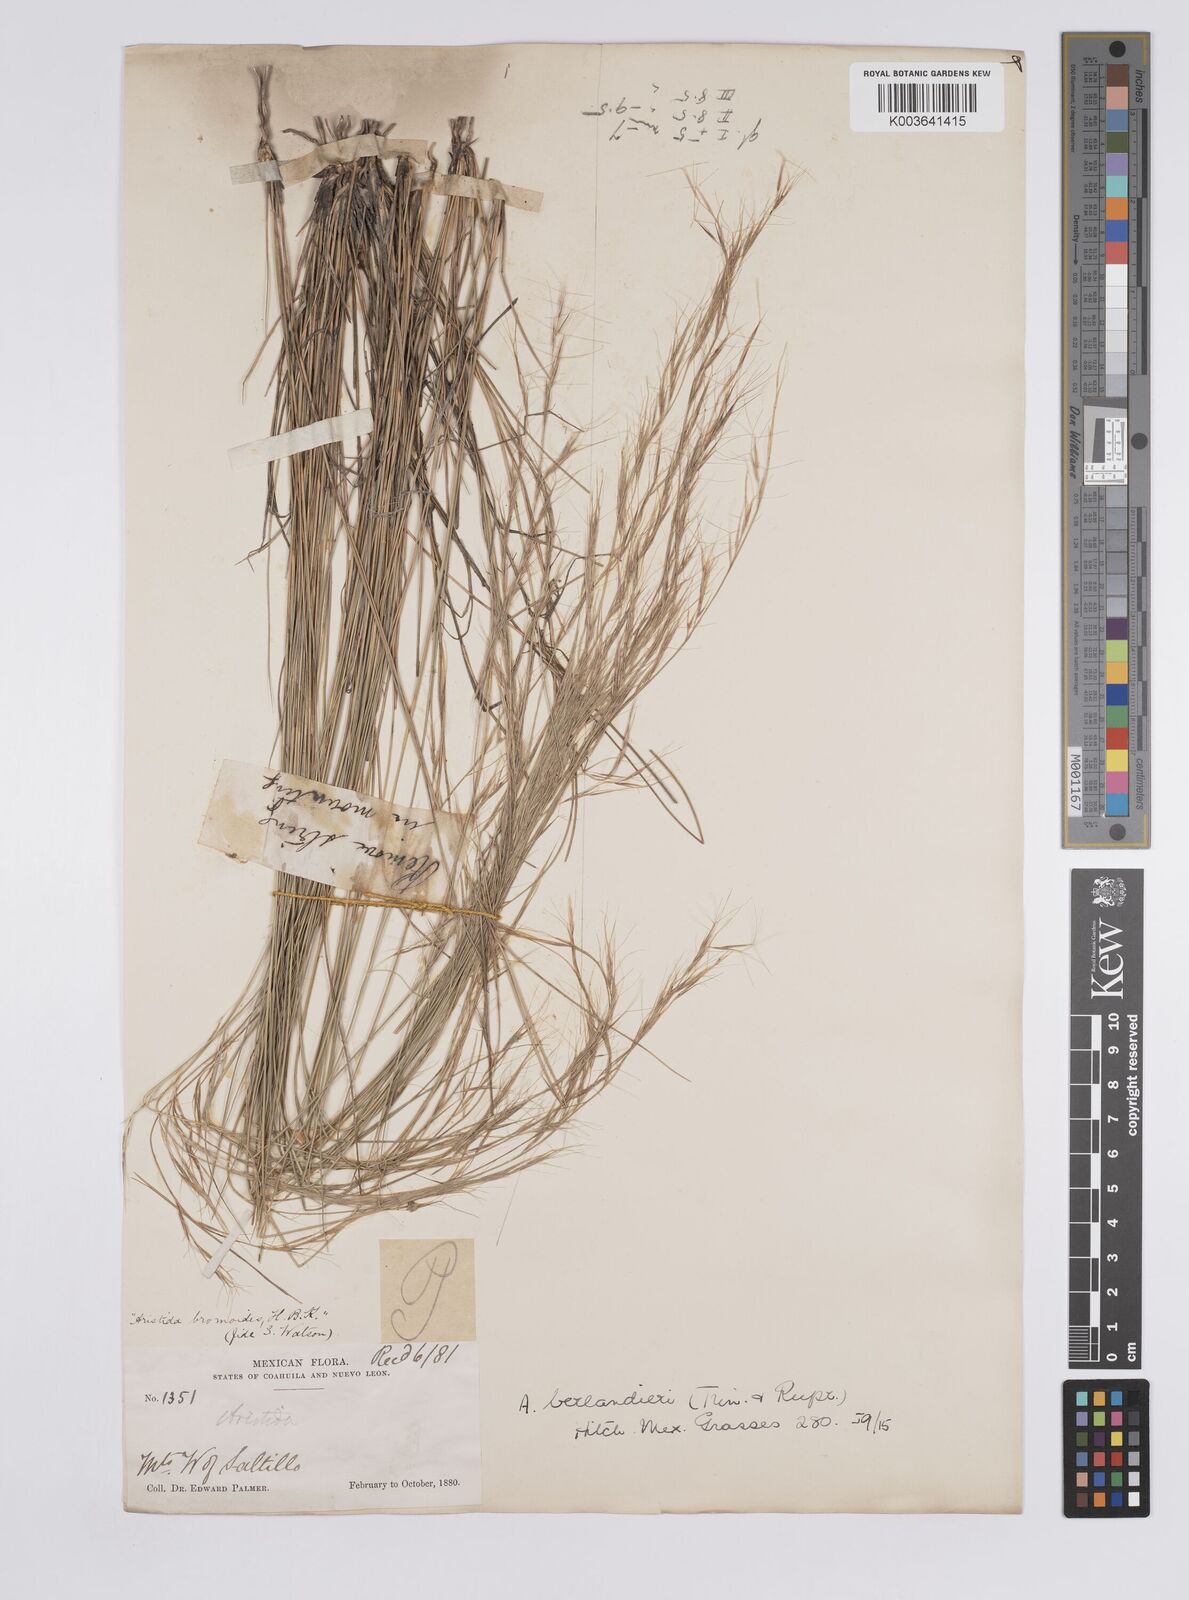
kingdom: Plantae
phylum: Tracheophyta
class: Liliopsida
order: Poales
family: Poaceae
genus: Aristida
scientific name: Aristida purpurea
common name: Purple threeawn
